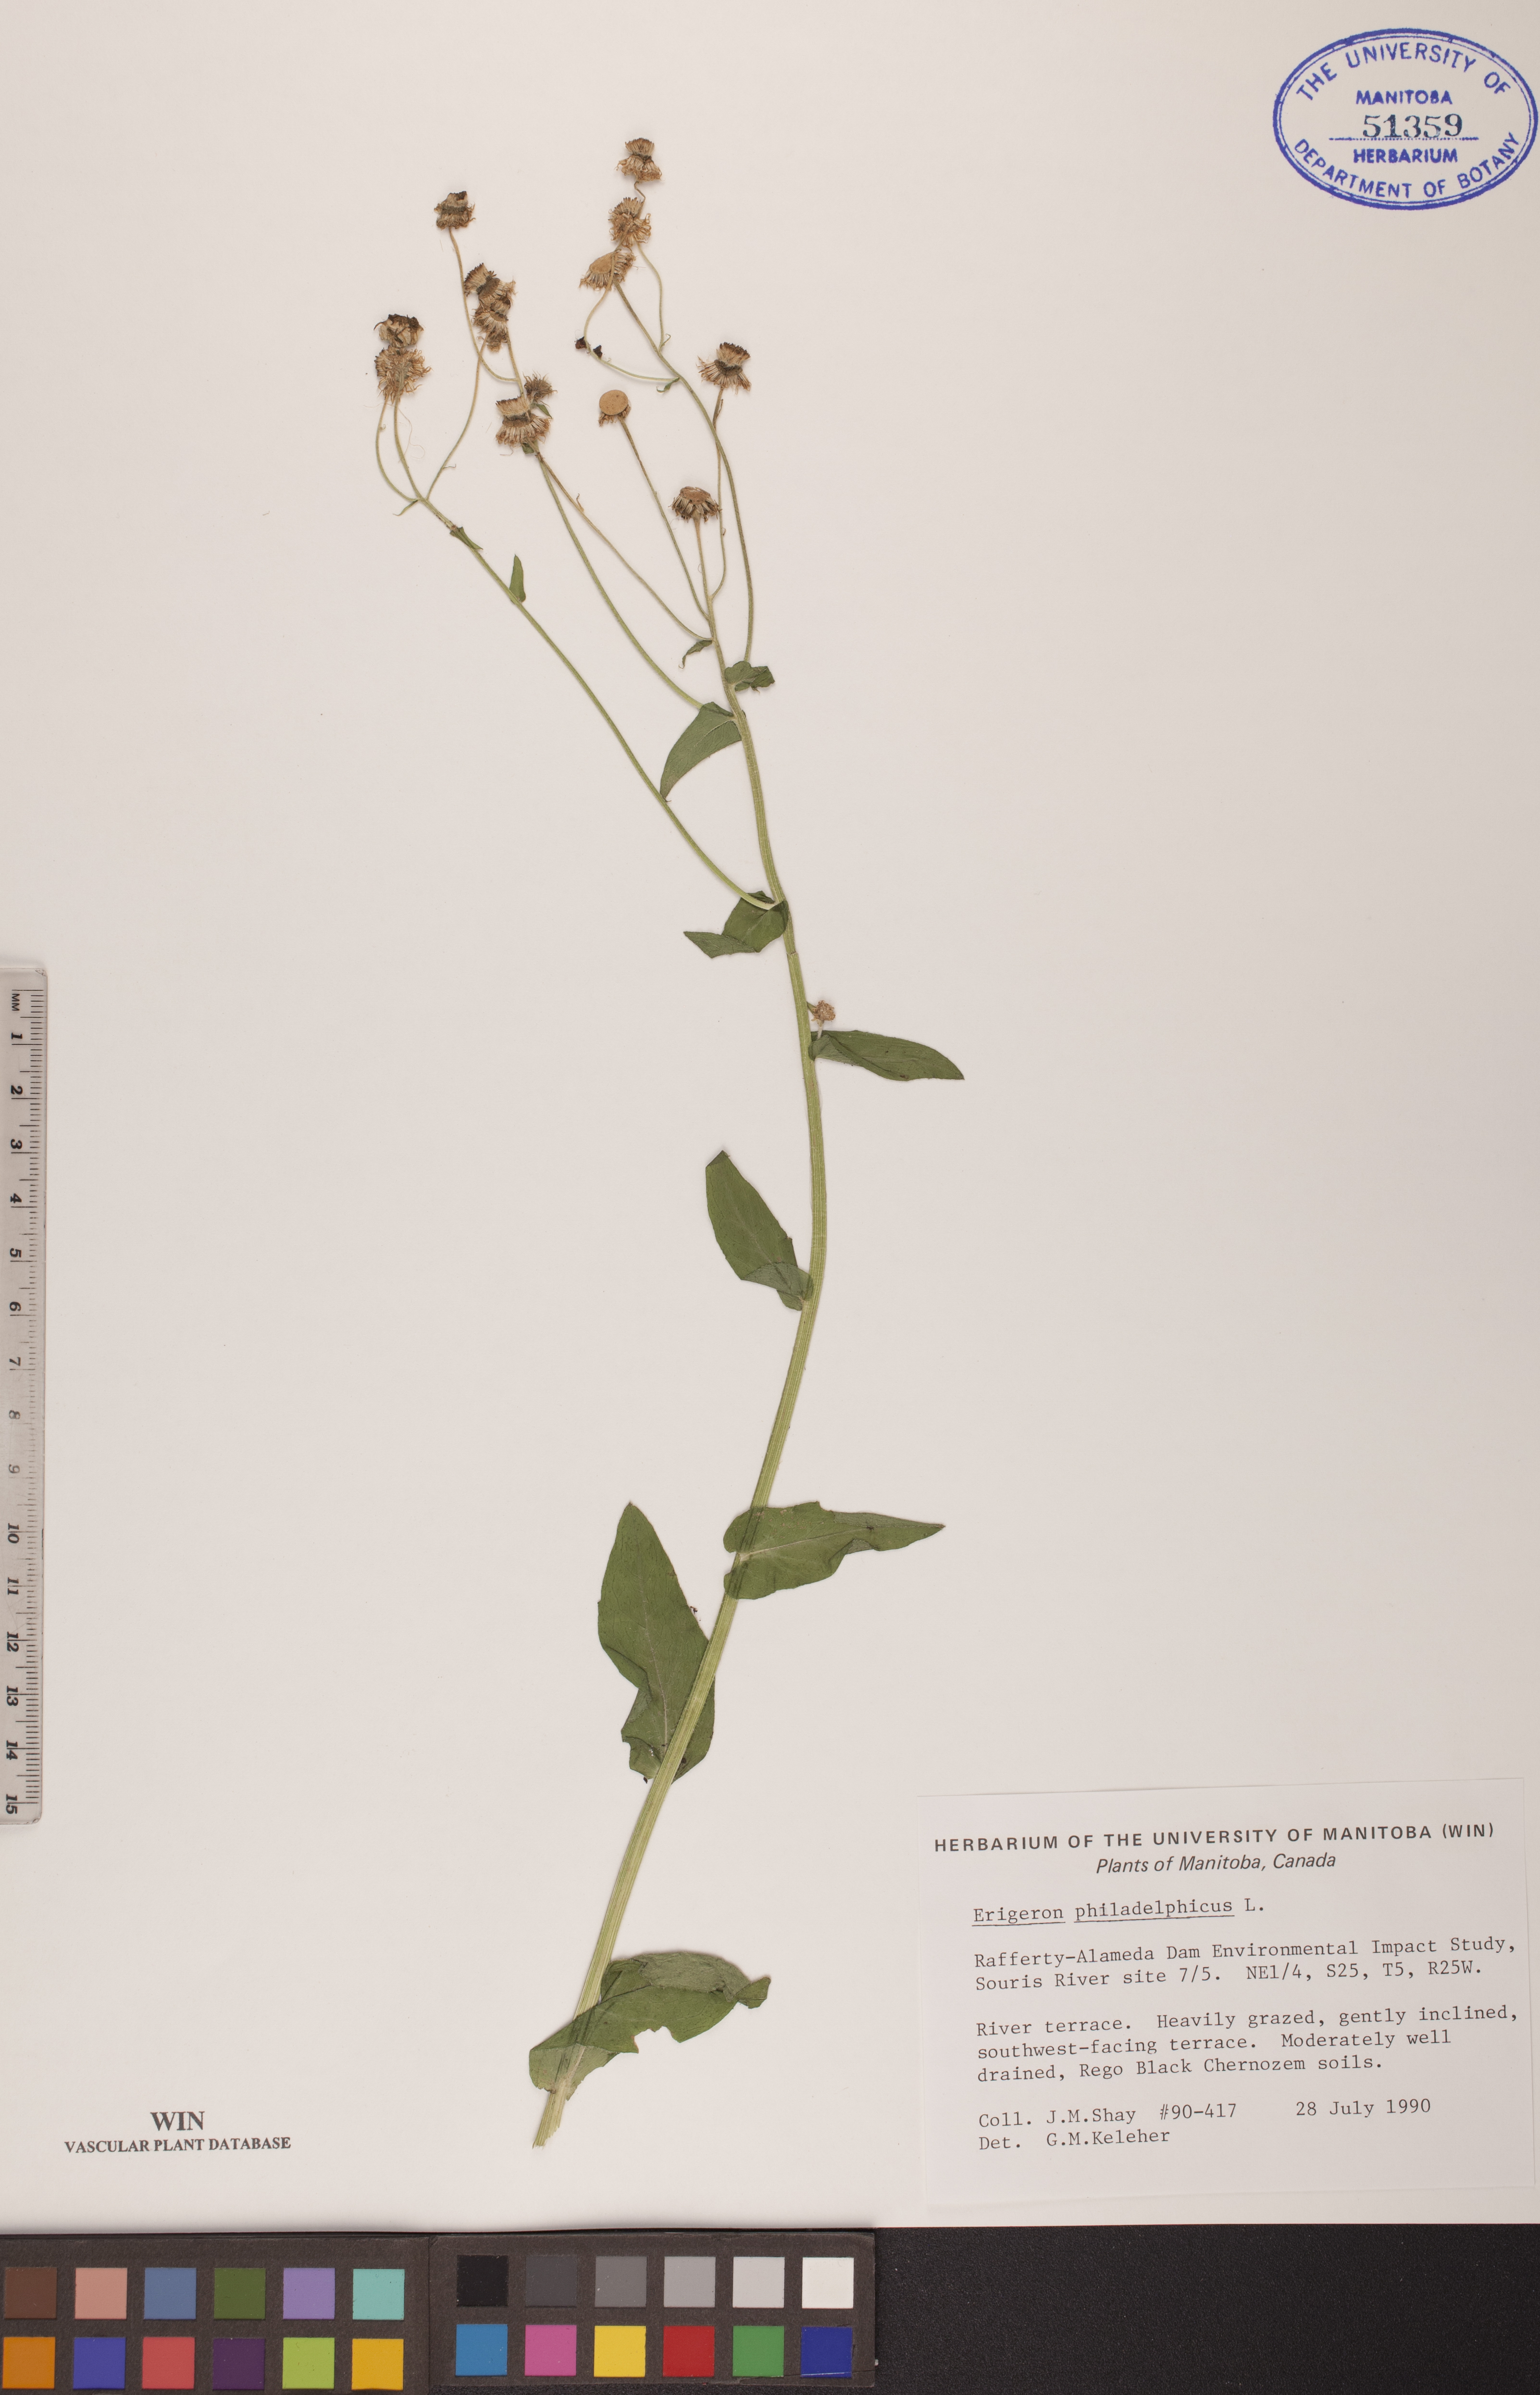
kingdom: Plantae
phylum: Tracheophyta
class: Magnoliopsida
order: Asterales
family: Asteraceae
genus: Erigeron
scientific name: Erigeron philadelphicus
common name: Robin's-plantain
